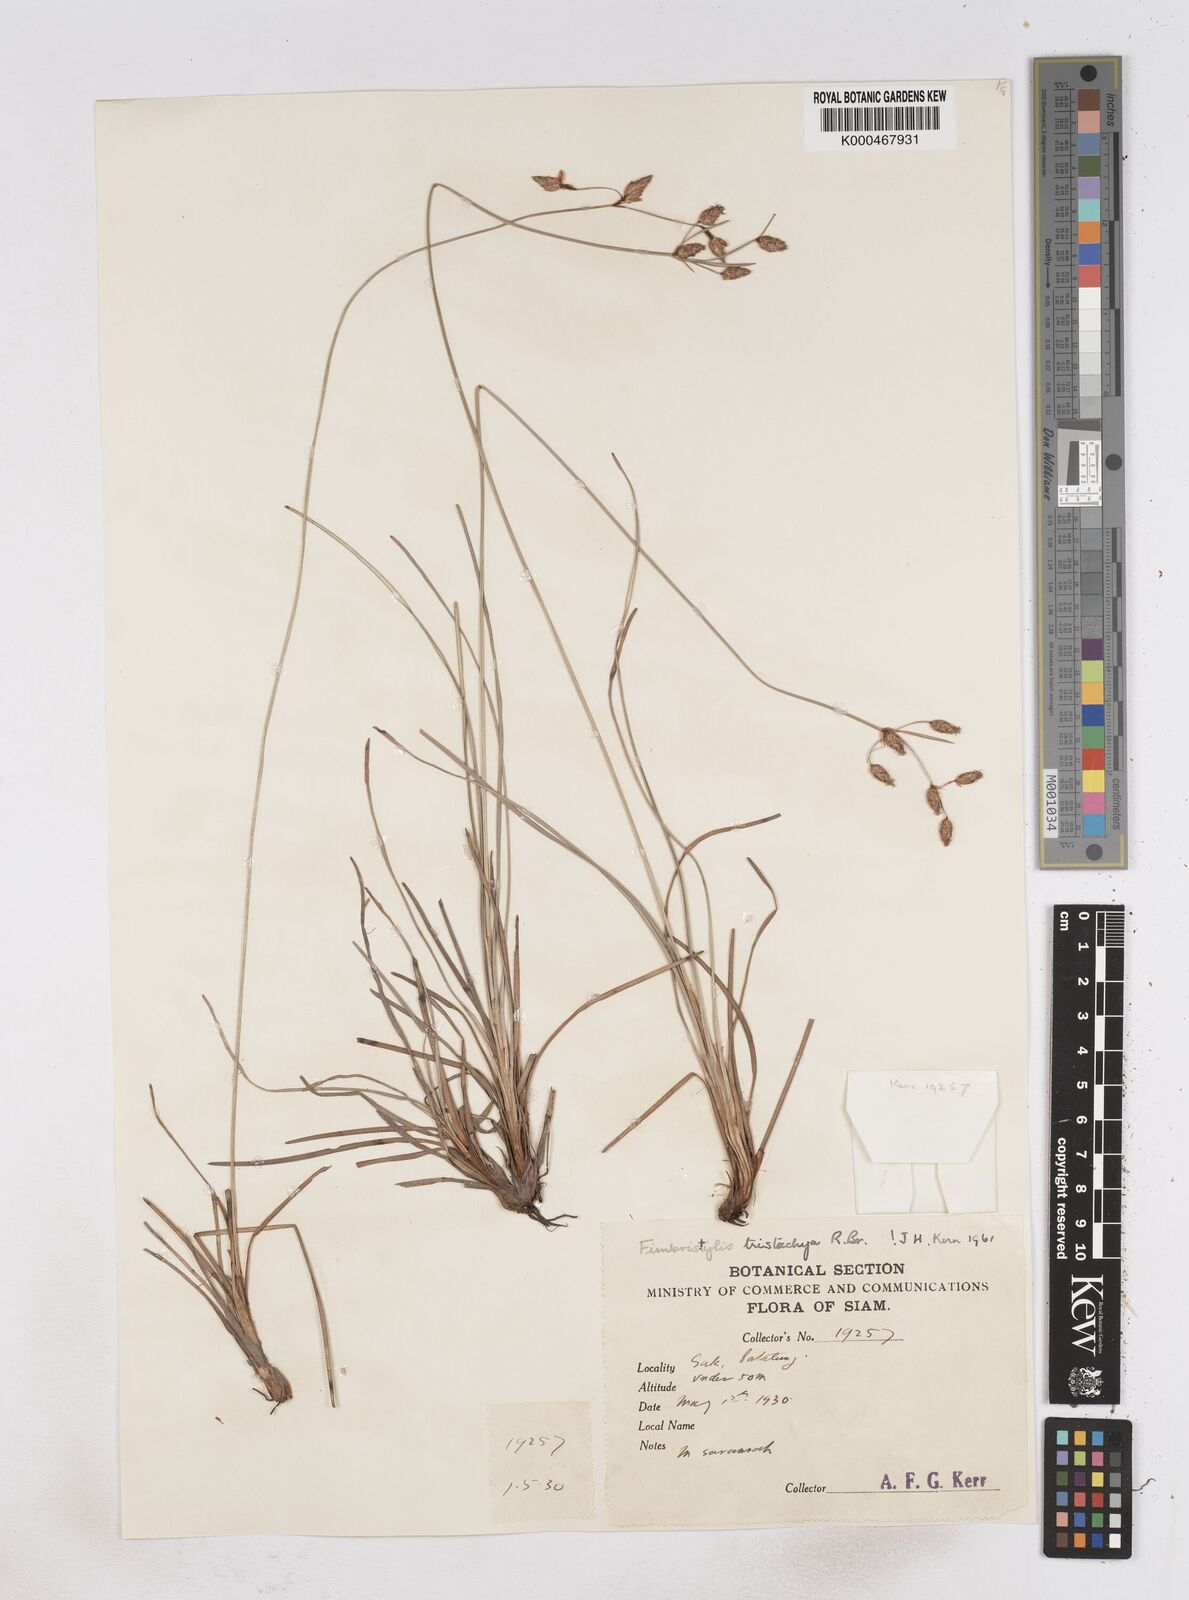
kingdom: Plantae
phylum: Tracheophyta
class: Liliopsida
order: Poales
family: Cyperaceae
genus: Fimbristylis
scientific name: Fimbristylis tristachya
